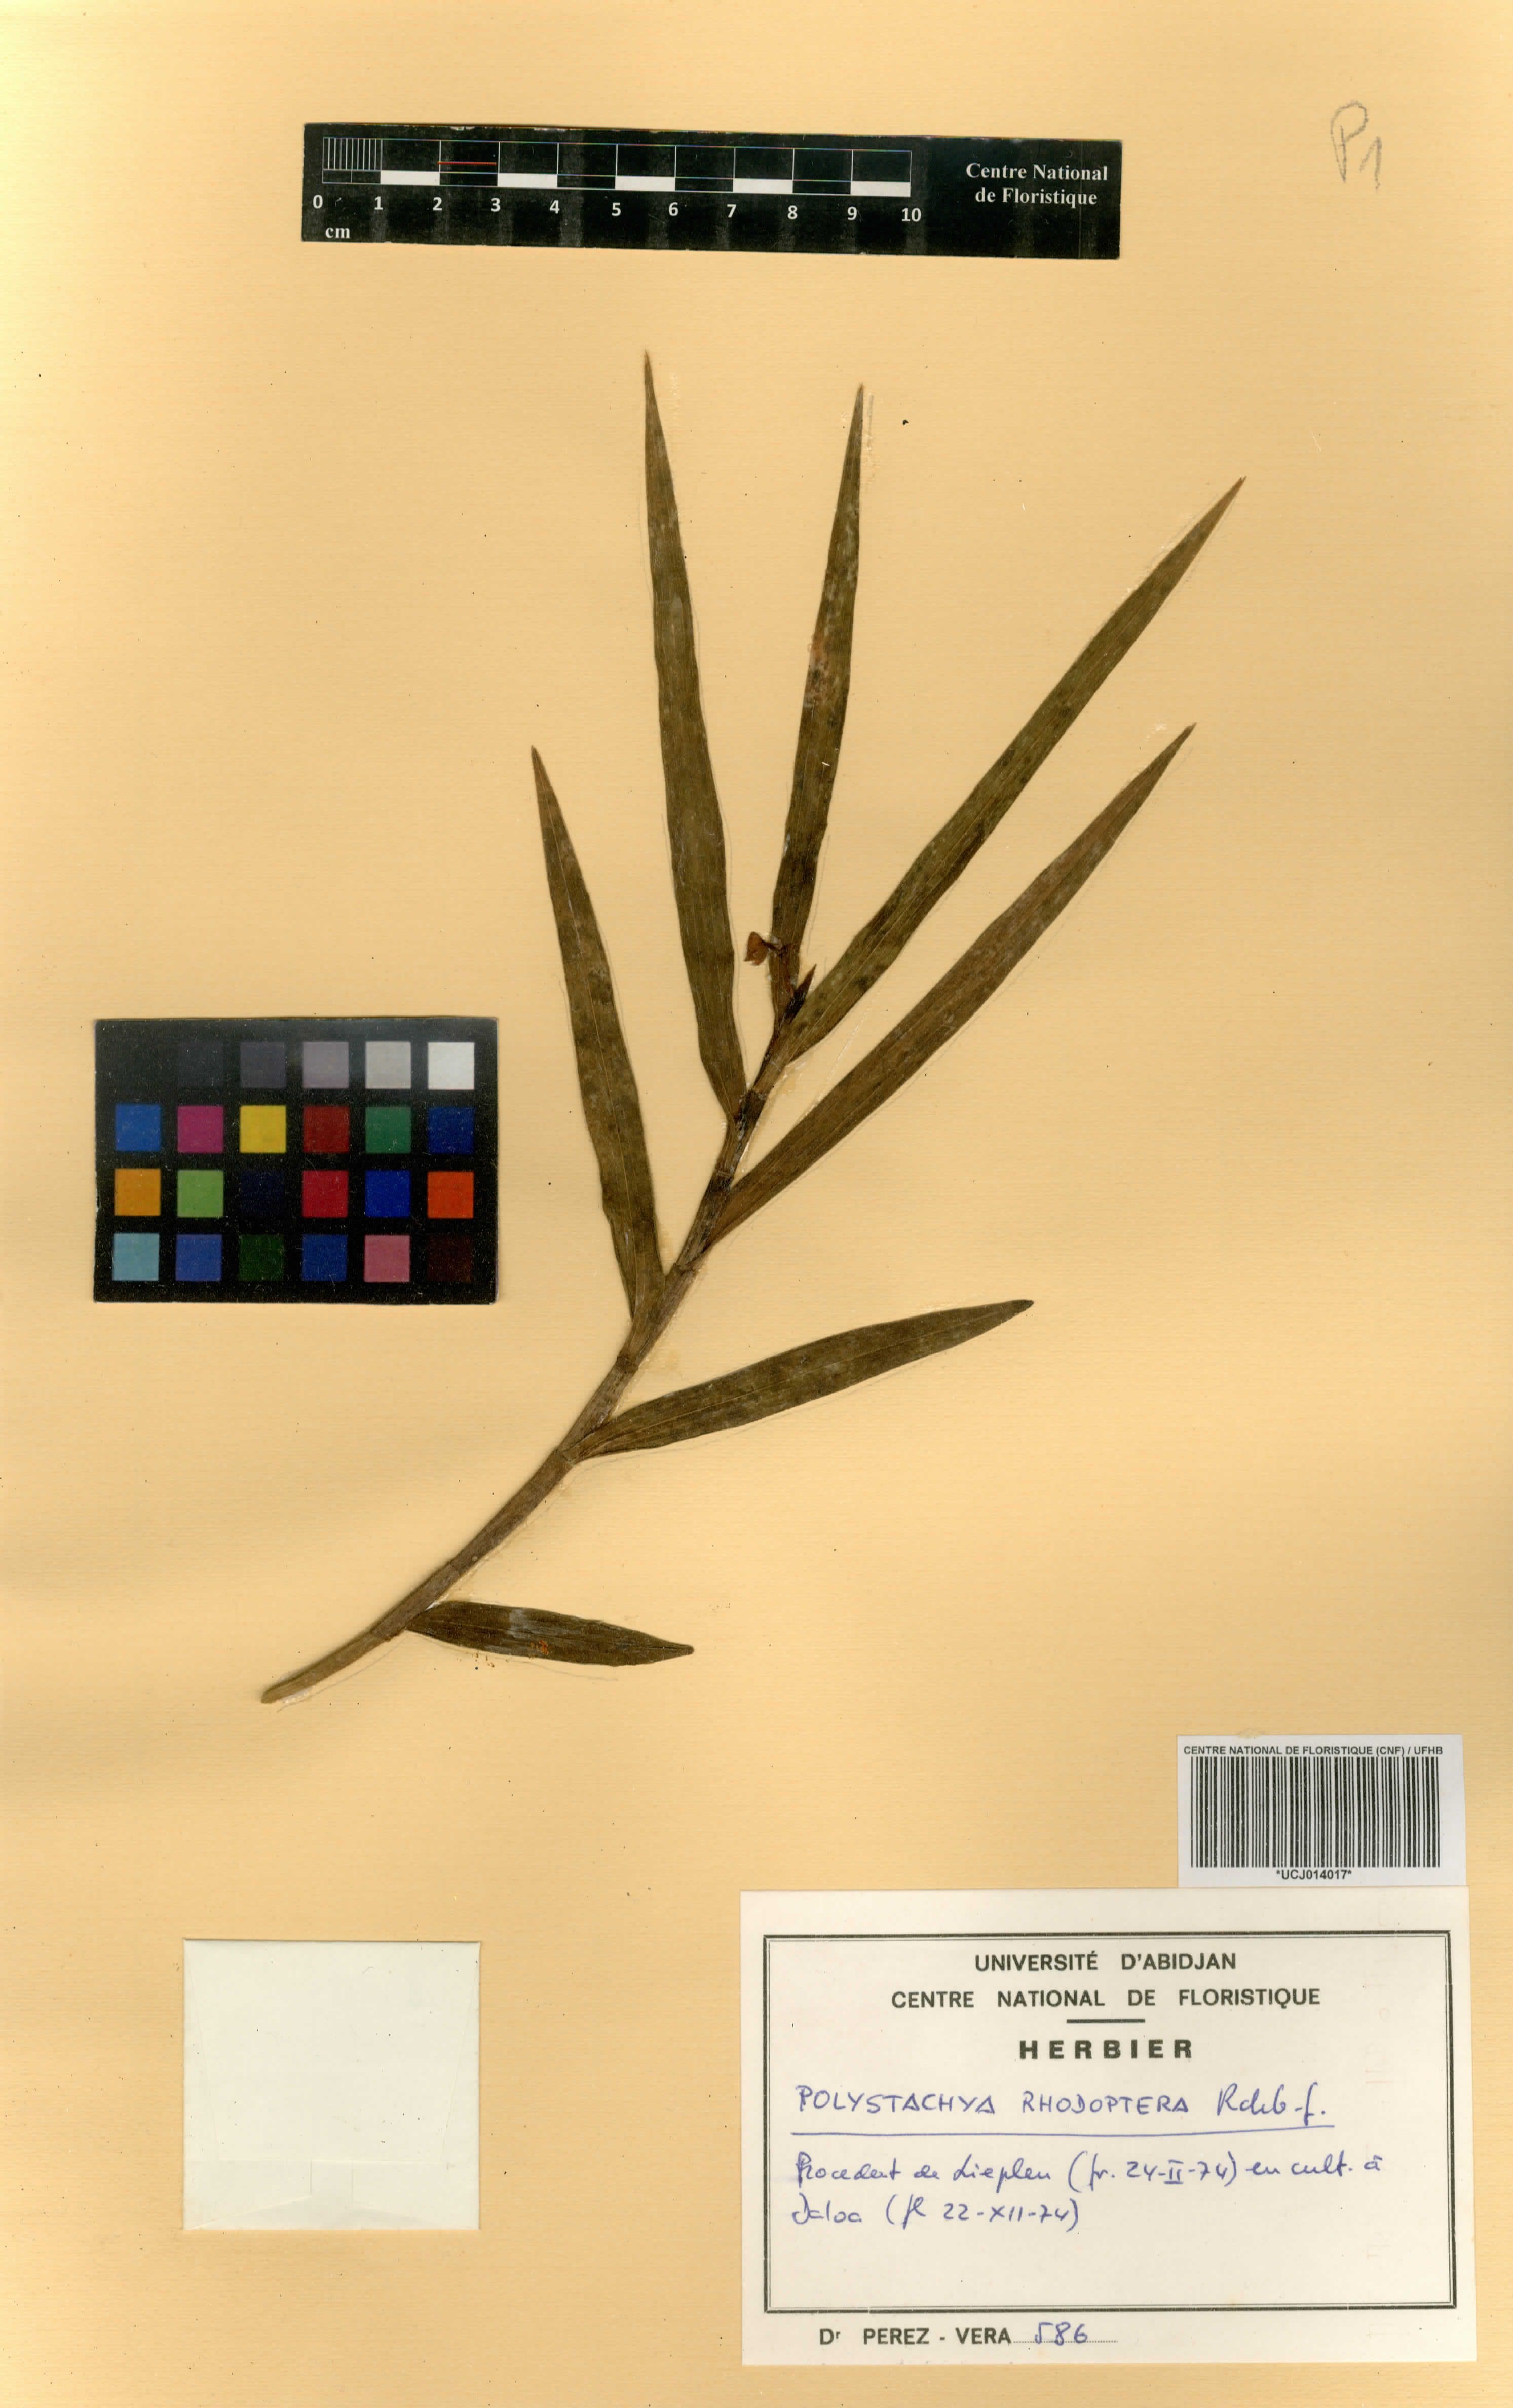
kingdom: Plantae
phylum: Tracheophyta
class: Liliopsida
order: Asparagales
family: Orchidaceae
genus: Polystachya
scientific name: Polystachya rhodoptera
